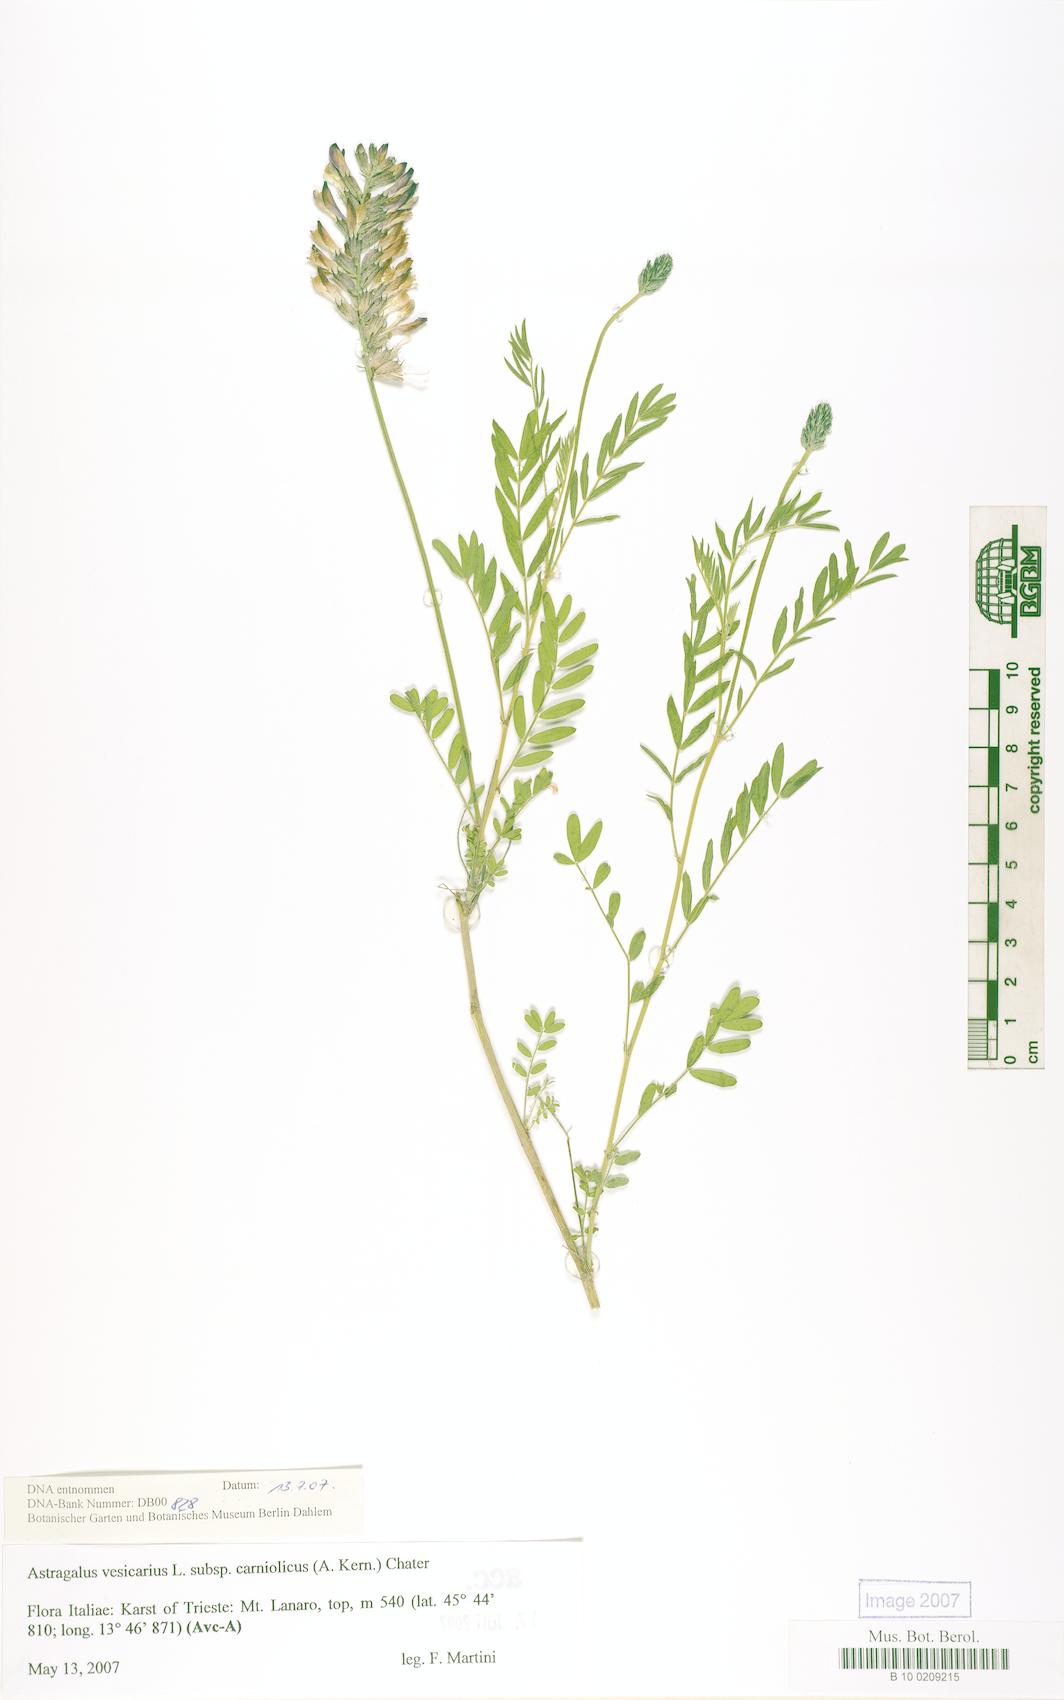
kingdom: Plantae
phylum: Tracheophyta
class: Magnoliopsida
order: Fabales
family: Fabaceae
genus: Astragalus
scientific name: Astragalus vesicarius
